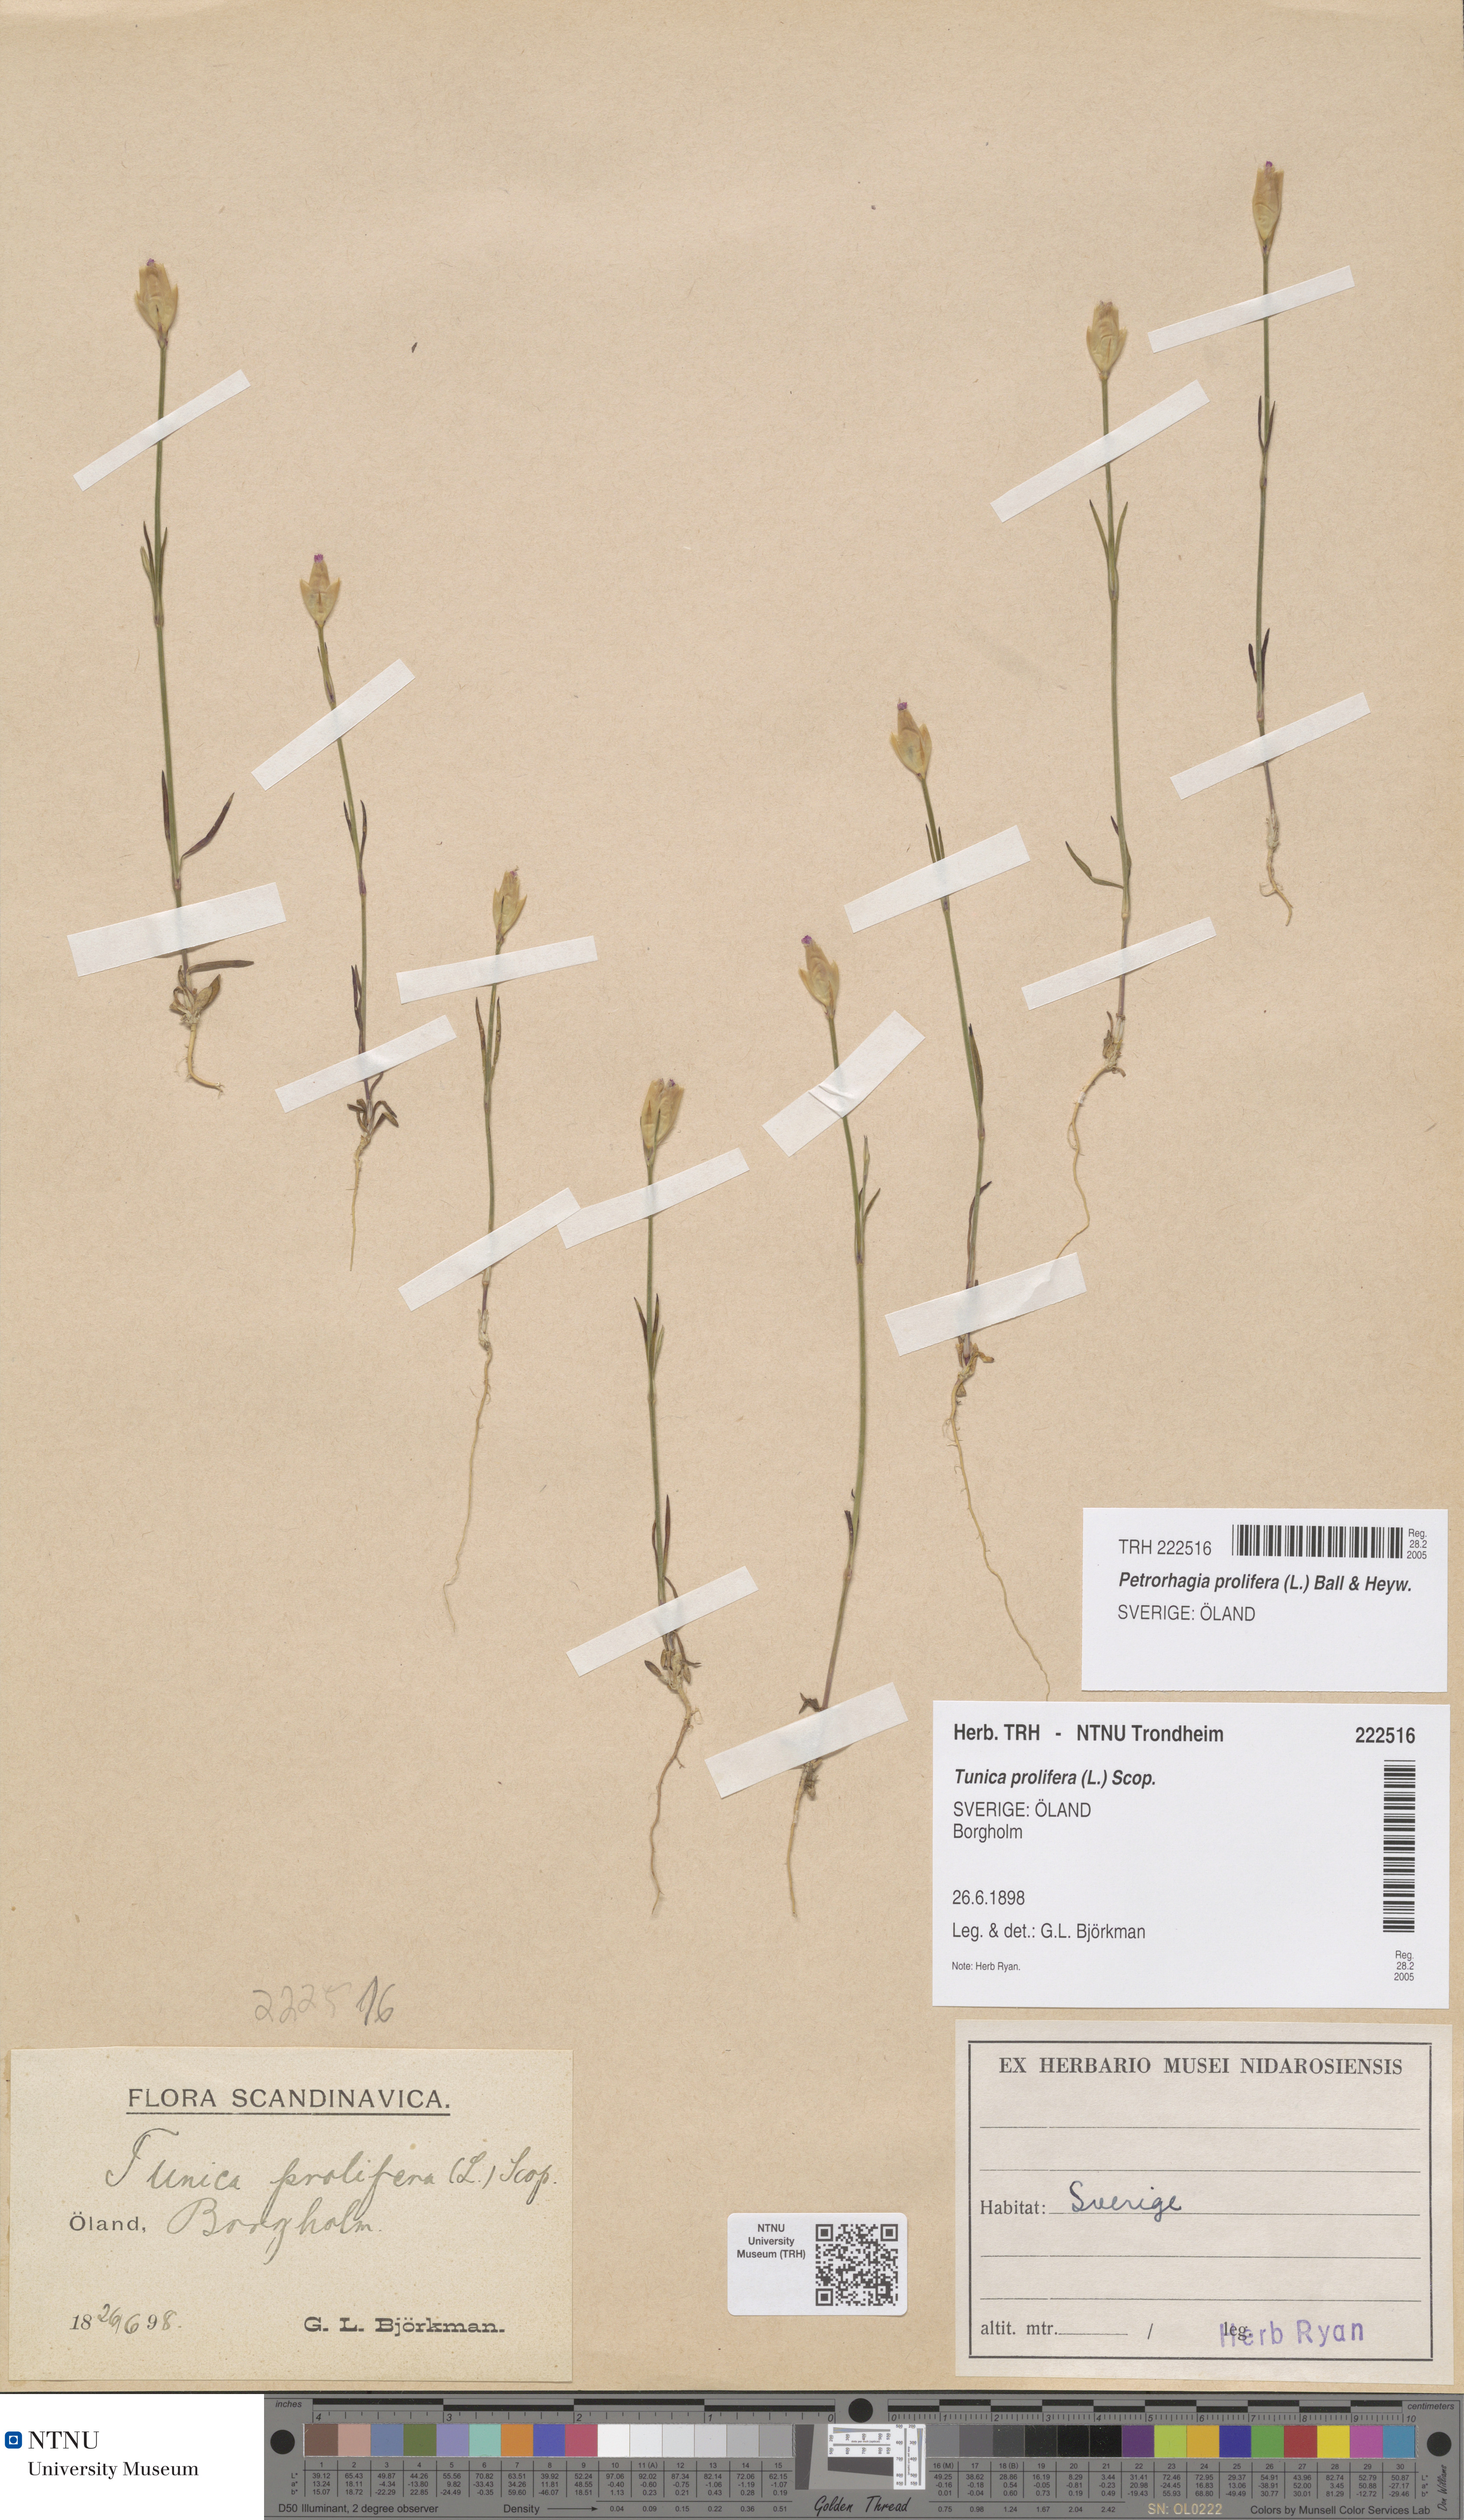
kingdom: Plantae
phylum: Tracheophyta
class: Magnoliopsida
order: Caryophyllales
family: Caryophyllaceae
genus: Petrorhagia
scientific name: Petrorhagia prolifera
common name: Proliferous pink
